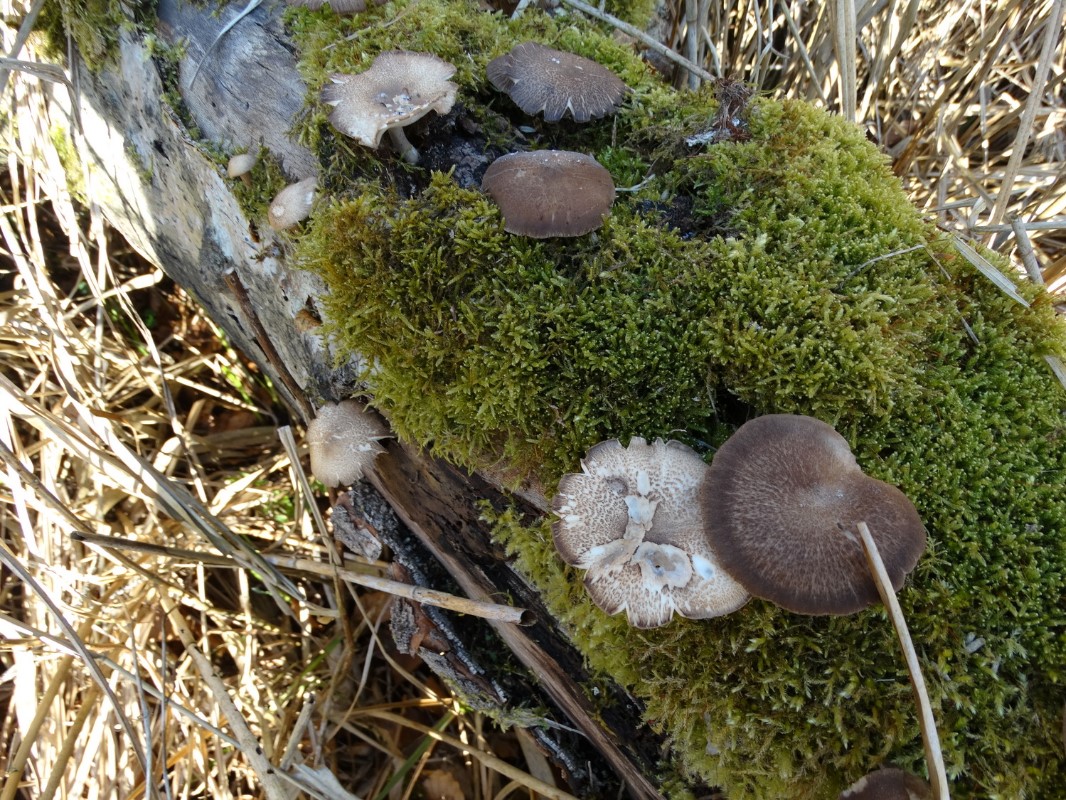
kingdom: Fungi
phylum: Basidiomycota
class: Agaricomycetes
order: Polyporales
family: Polyporaceae
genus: Lentinus
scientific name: Lentinus substrictus
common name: forårs-stilkporesvamp
